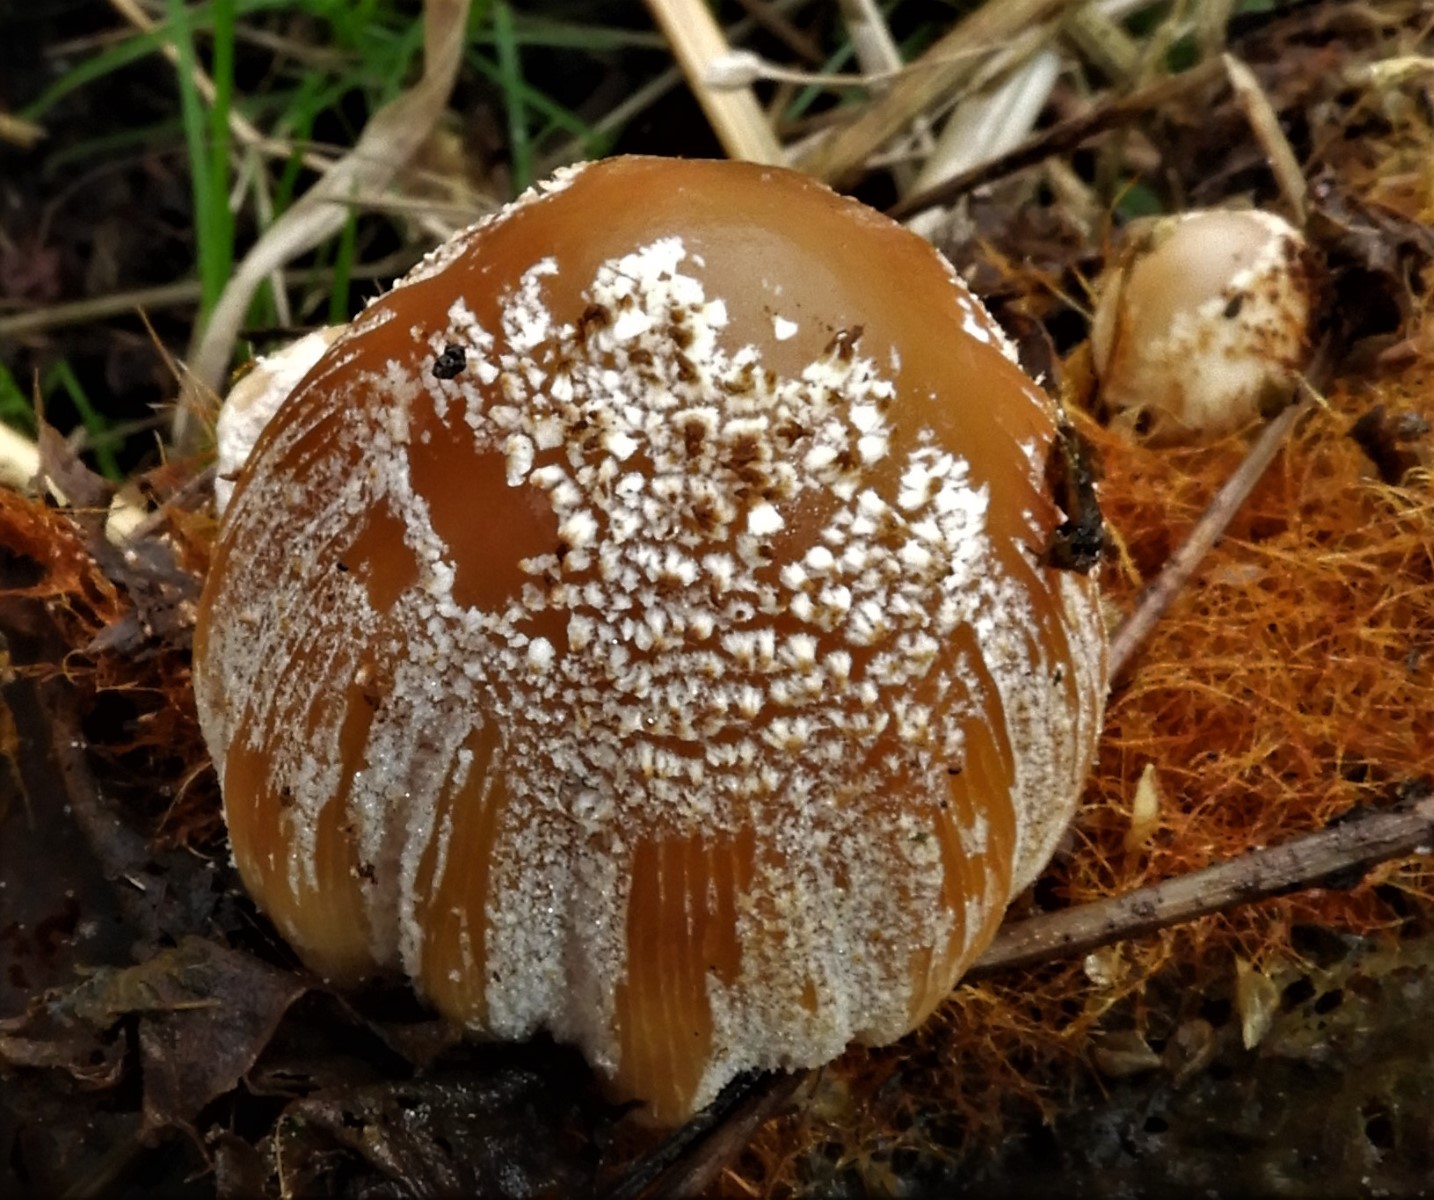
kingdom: Fungi
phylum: Basidiomycota
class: Agaricomycetes
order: Agaricales
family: Psathyrellaceae
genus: Coprinellus
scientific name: Coprinellus
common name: blækhat
